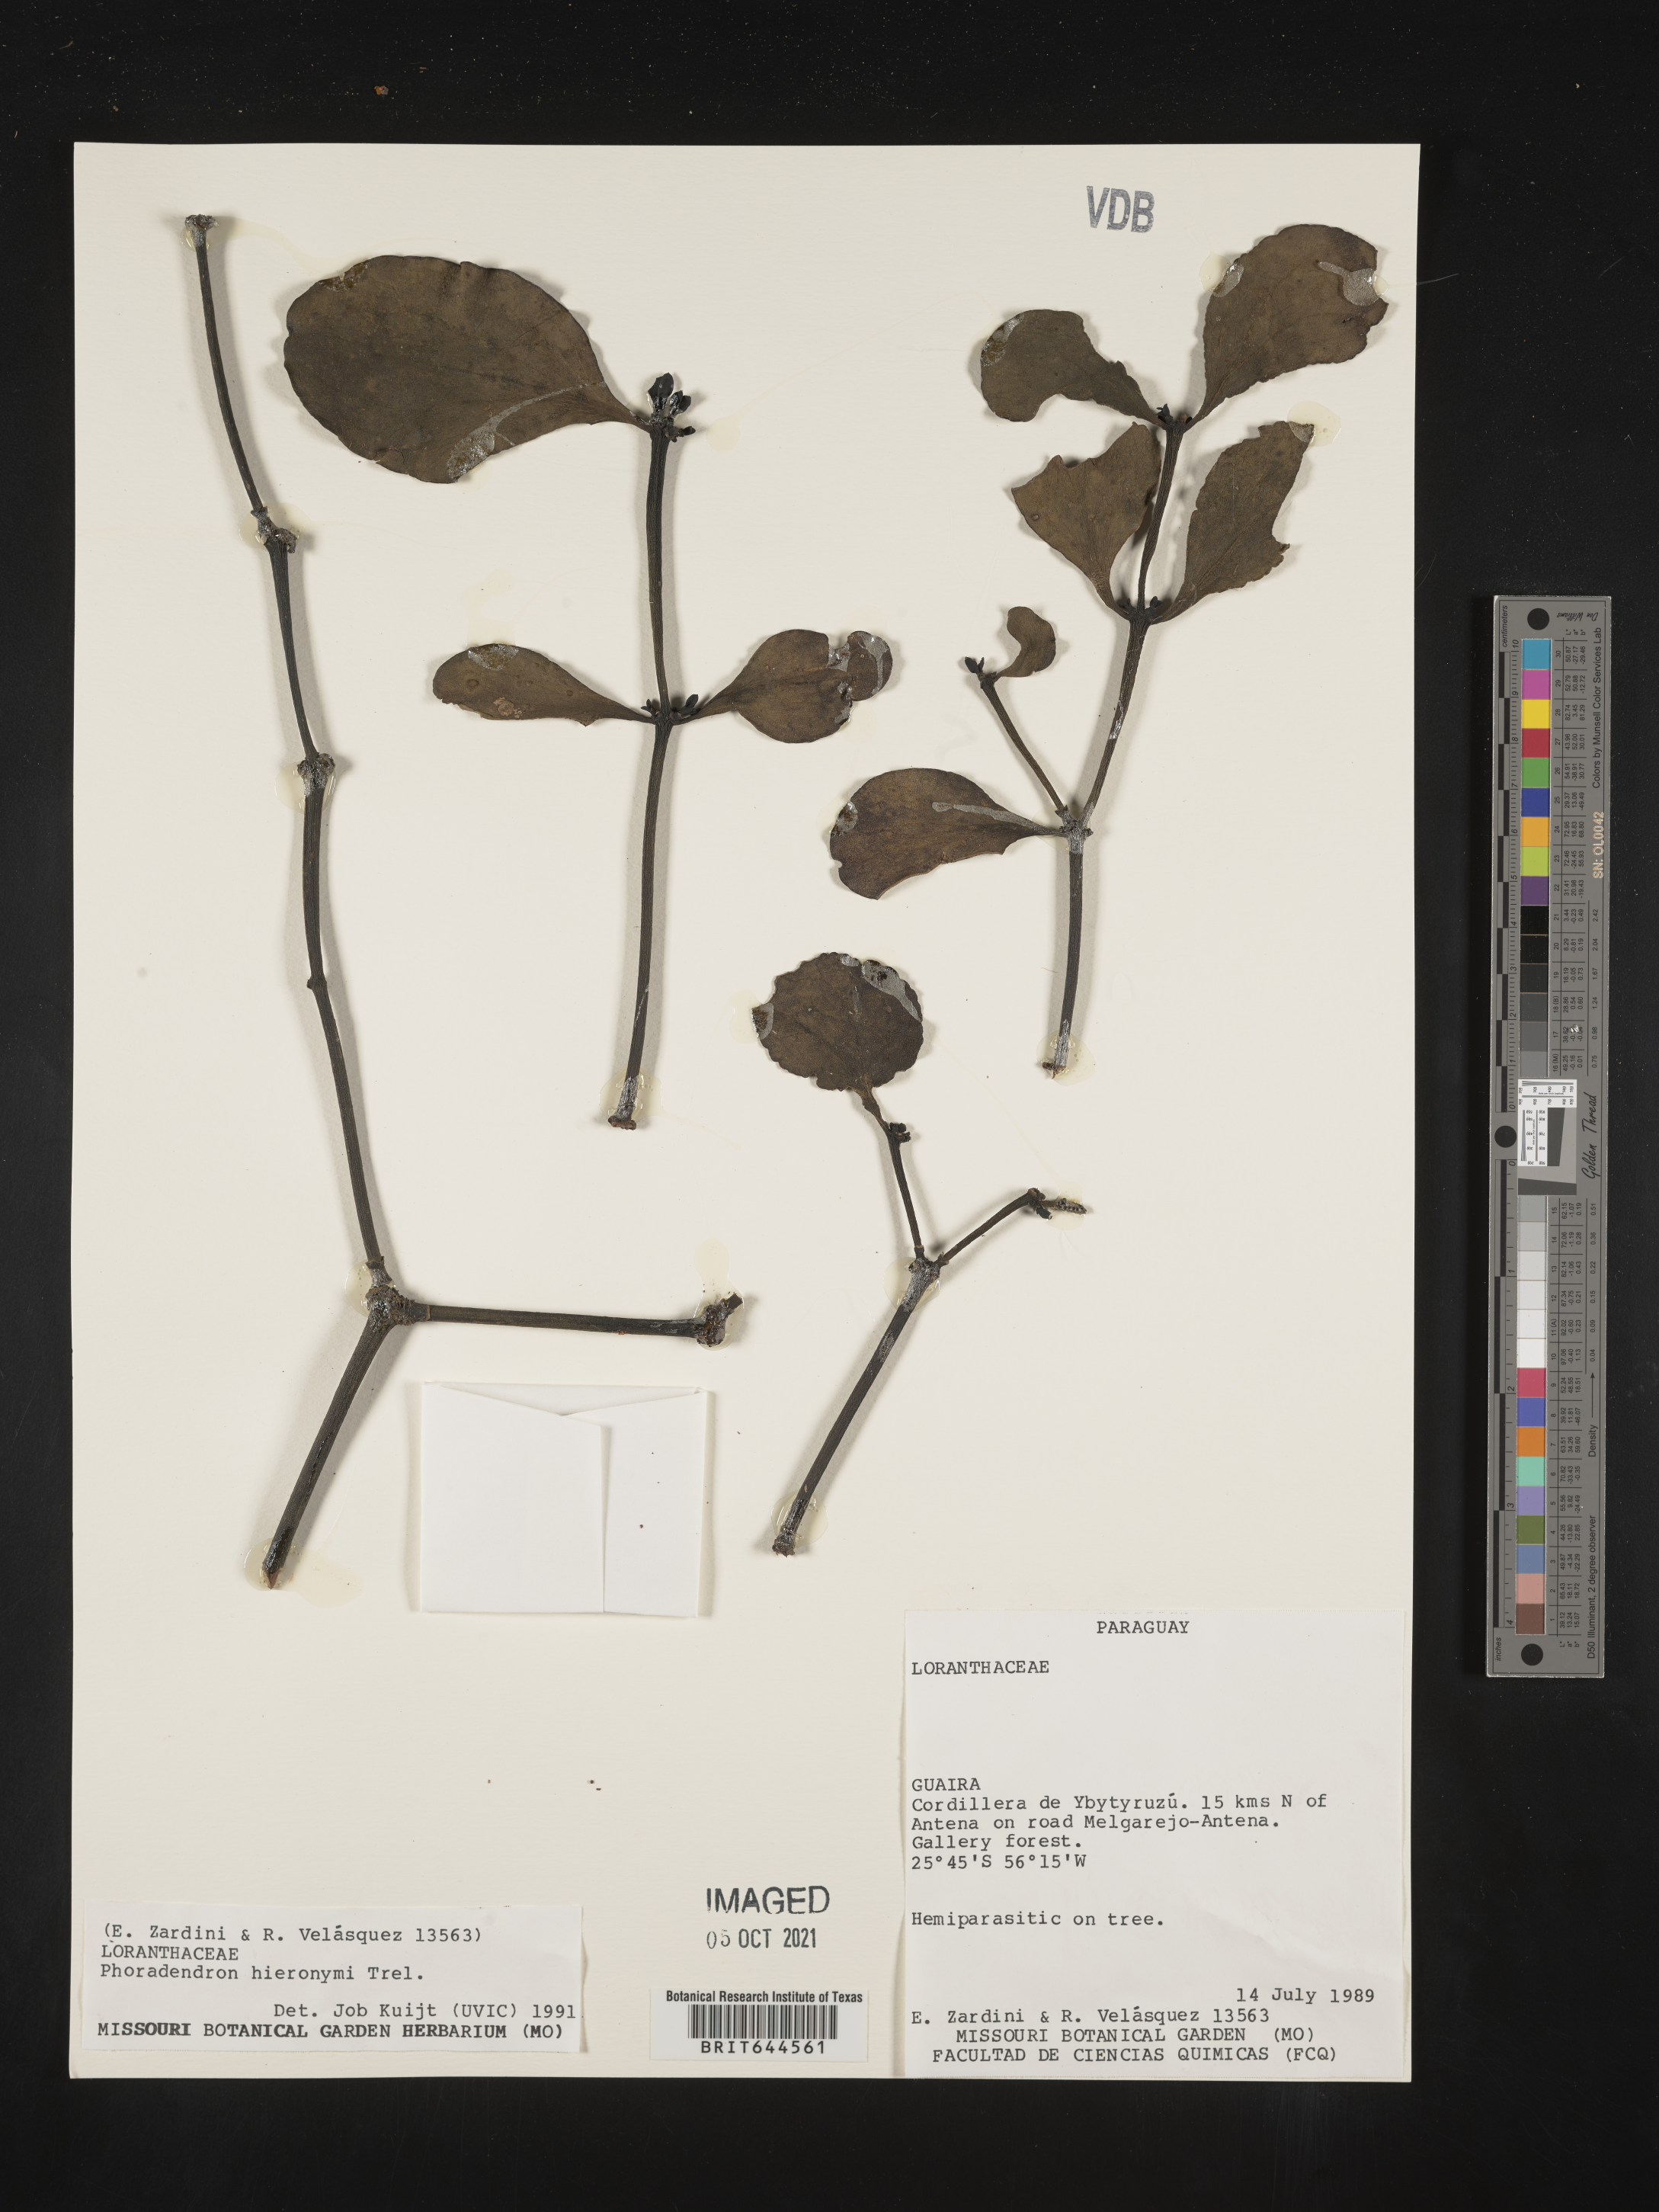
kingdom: Plantae
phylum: Tracheophyta
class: Magnoliopsida
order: Santalales
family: Viscaceae
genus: Phoradendron
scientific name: Phoradendron
